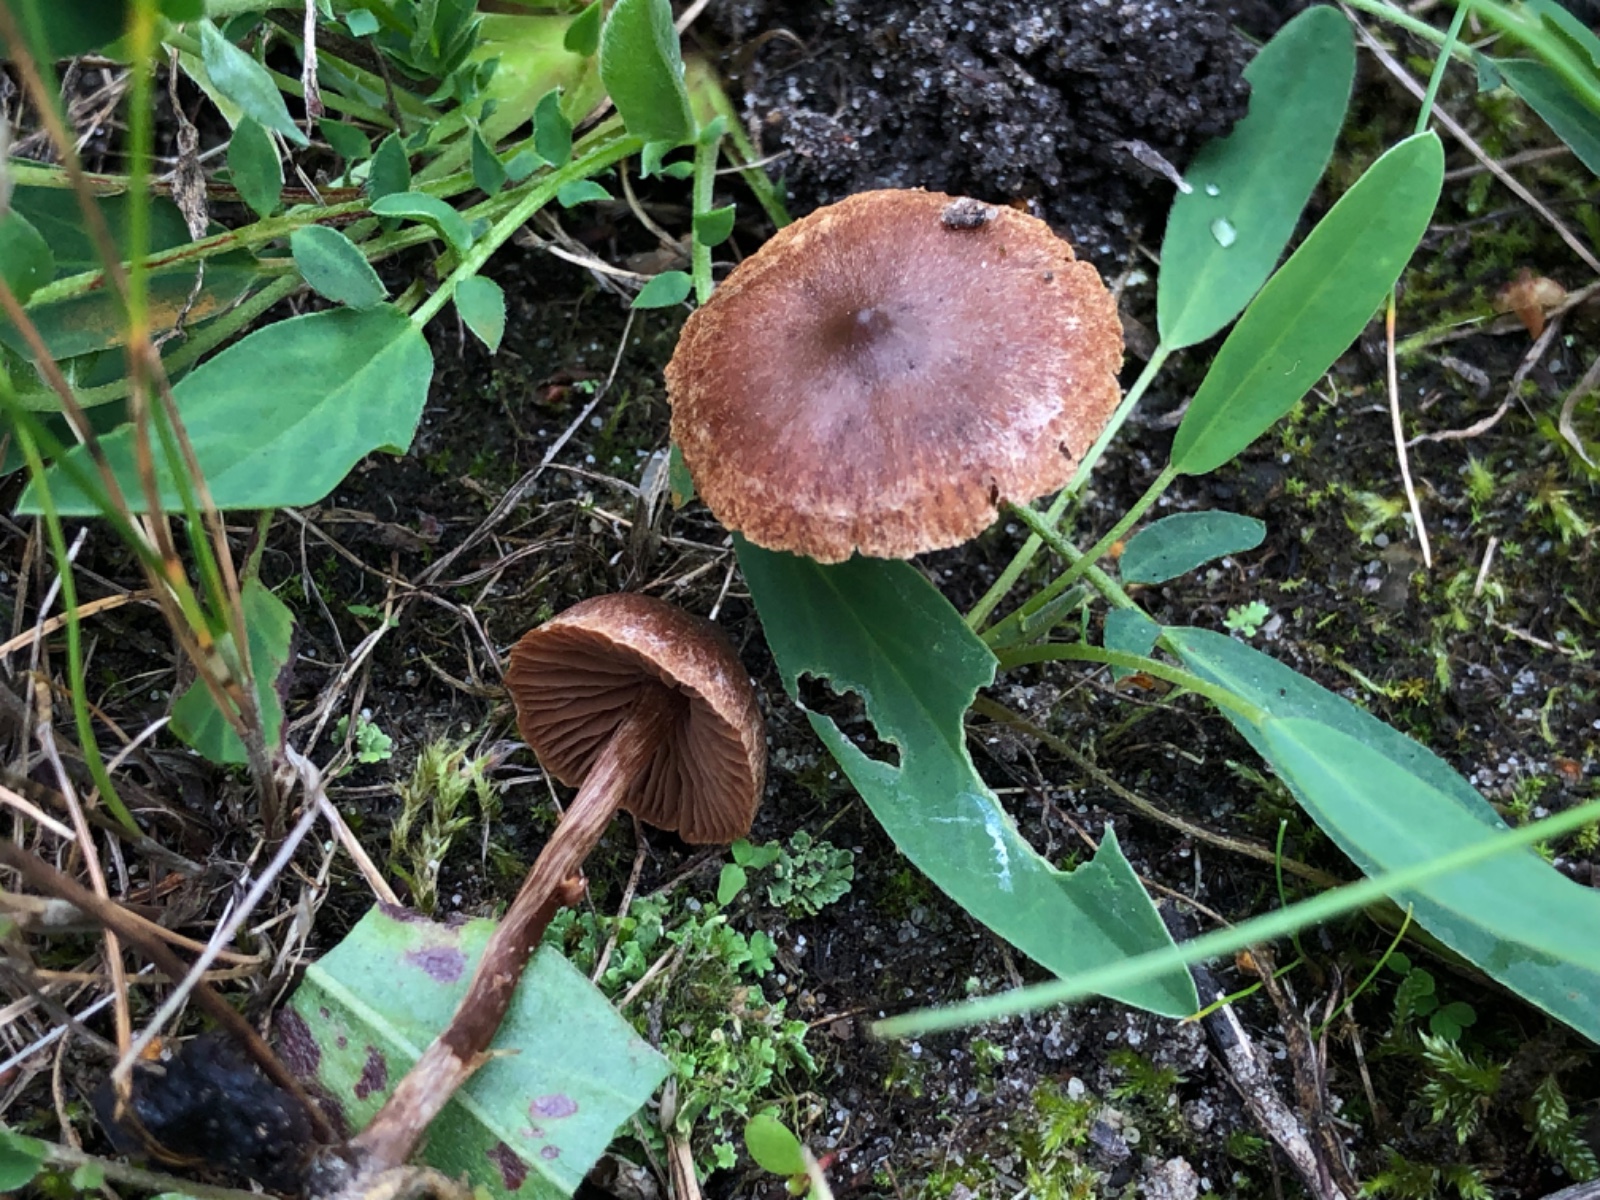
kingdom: Fungi
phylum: Basidiomycota
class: Agaricomycetes
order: Agaricales
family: Cortinariaceae
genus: Cortinarius
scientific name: Cortinarius desertorum
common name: skær slørhat
